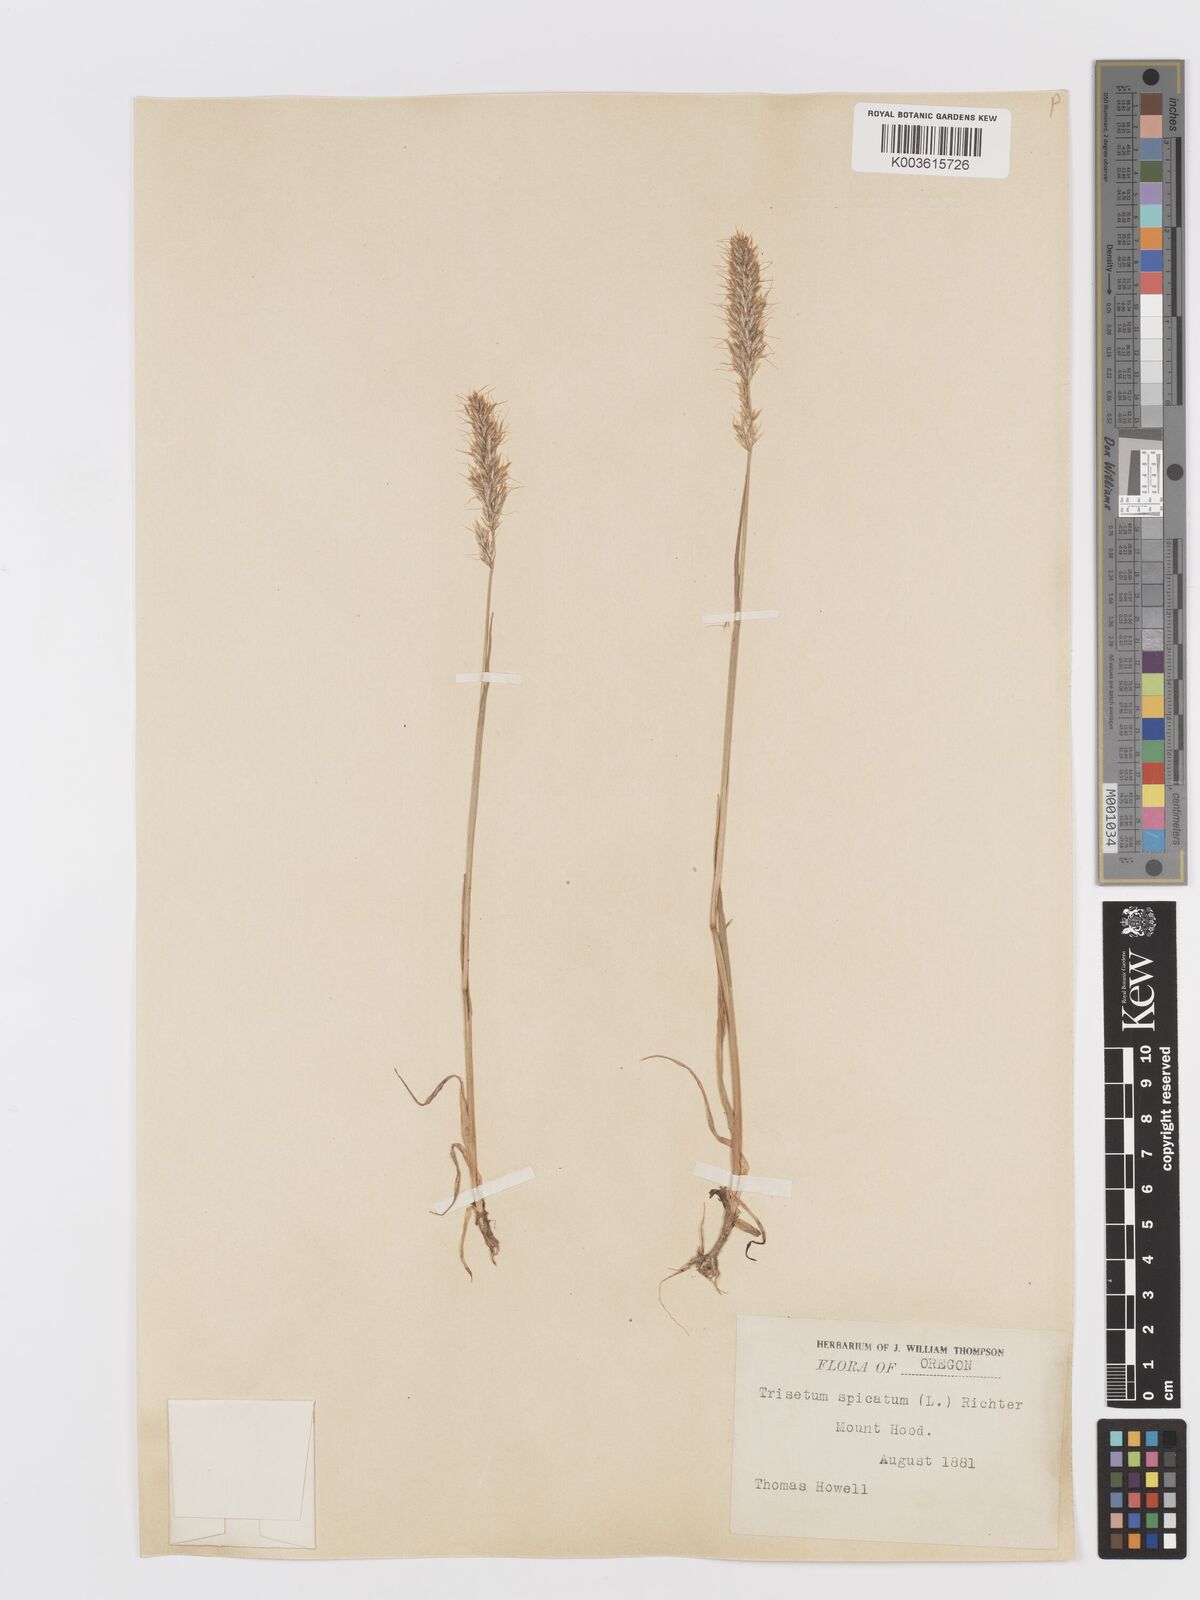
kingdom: Plantae
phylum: Tracheophyta
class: Liliopsida
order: Poales
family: Poaceae
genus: Koeleria
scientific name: Koeleria spicata
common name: Mountain trisetum
